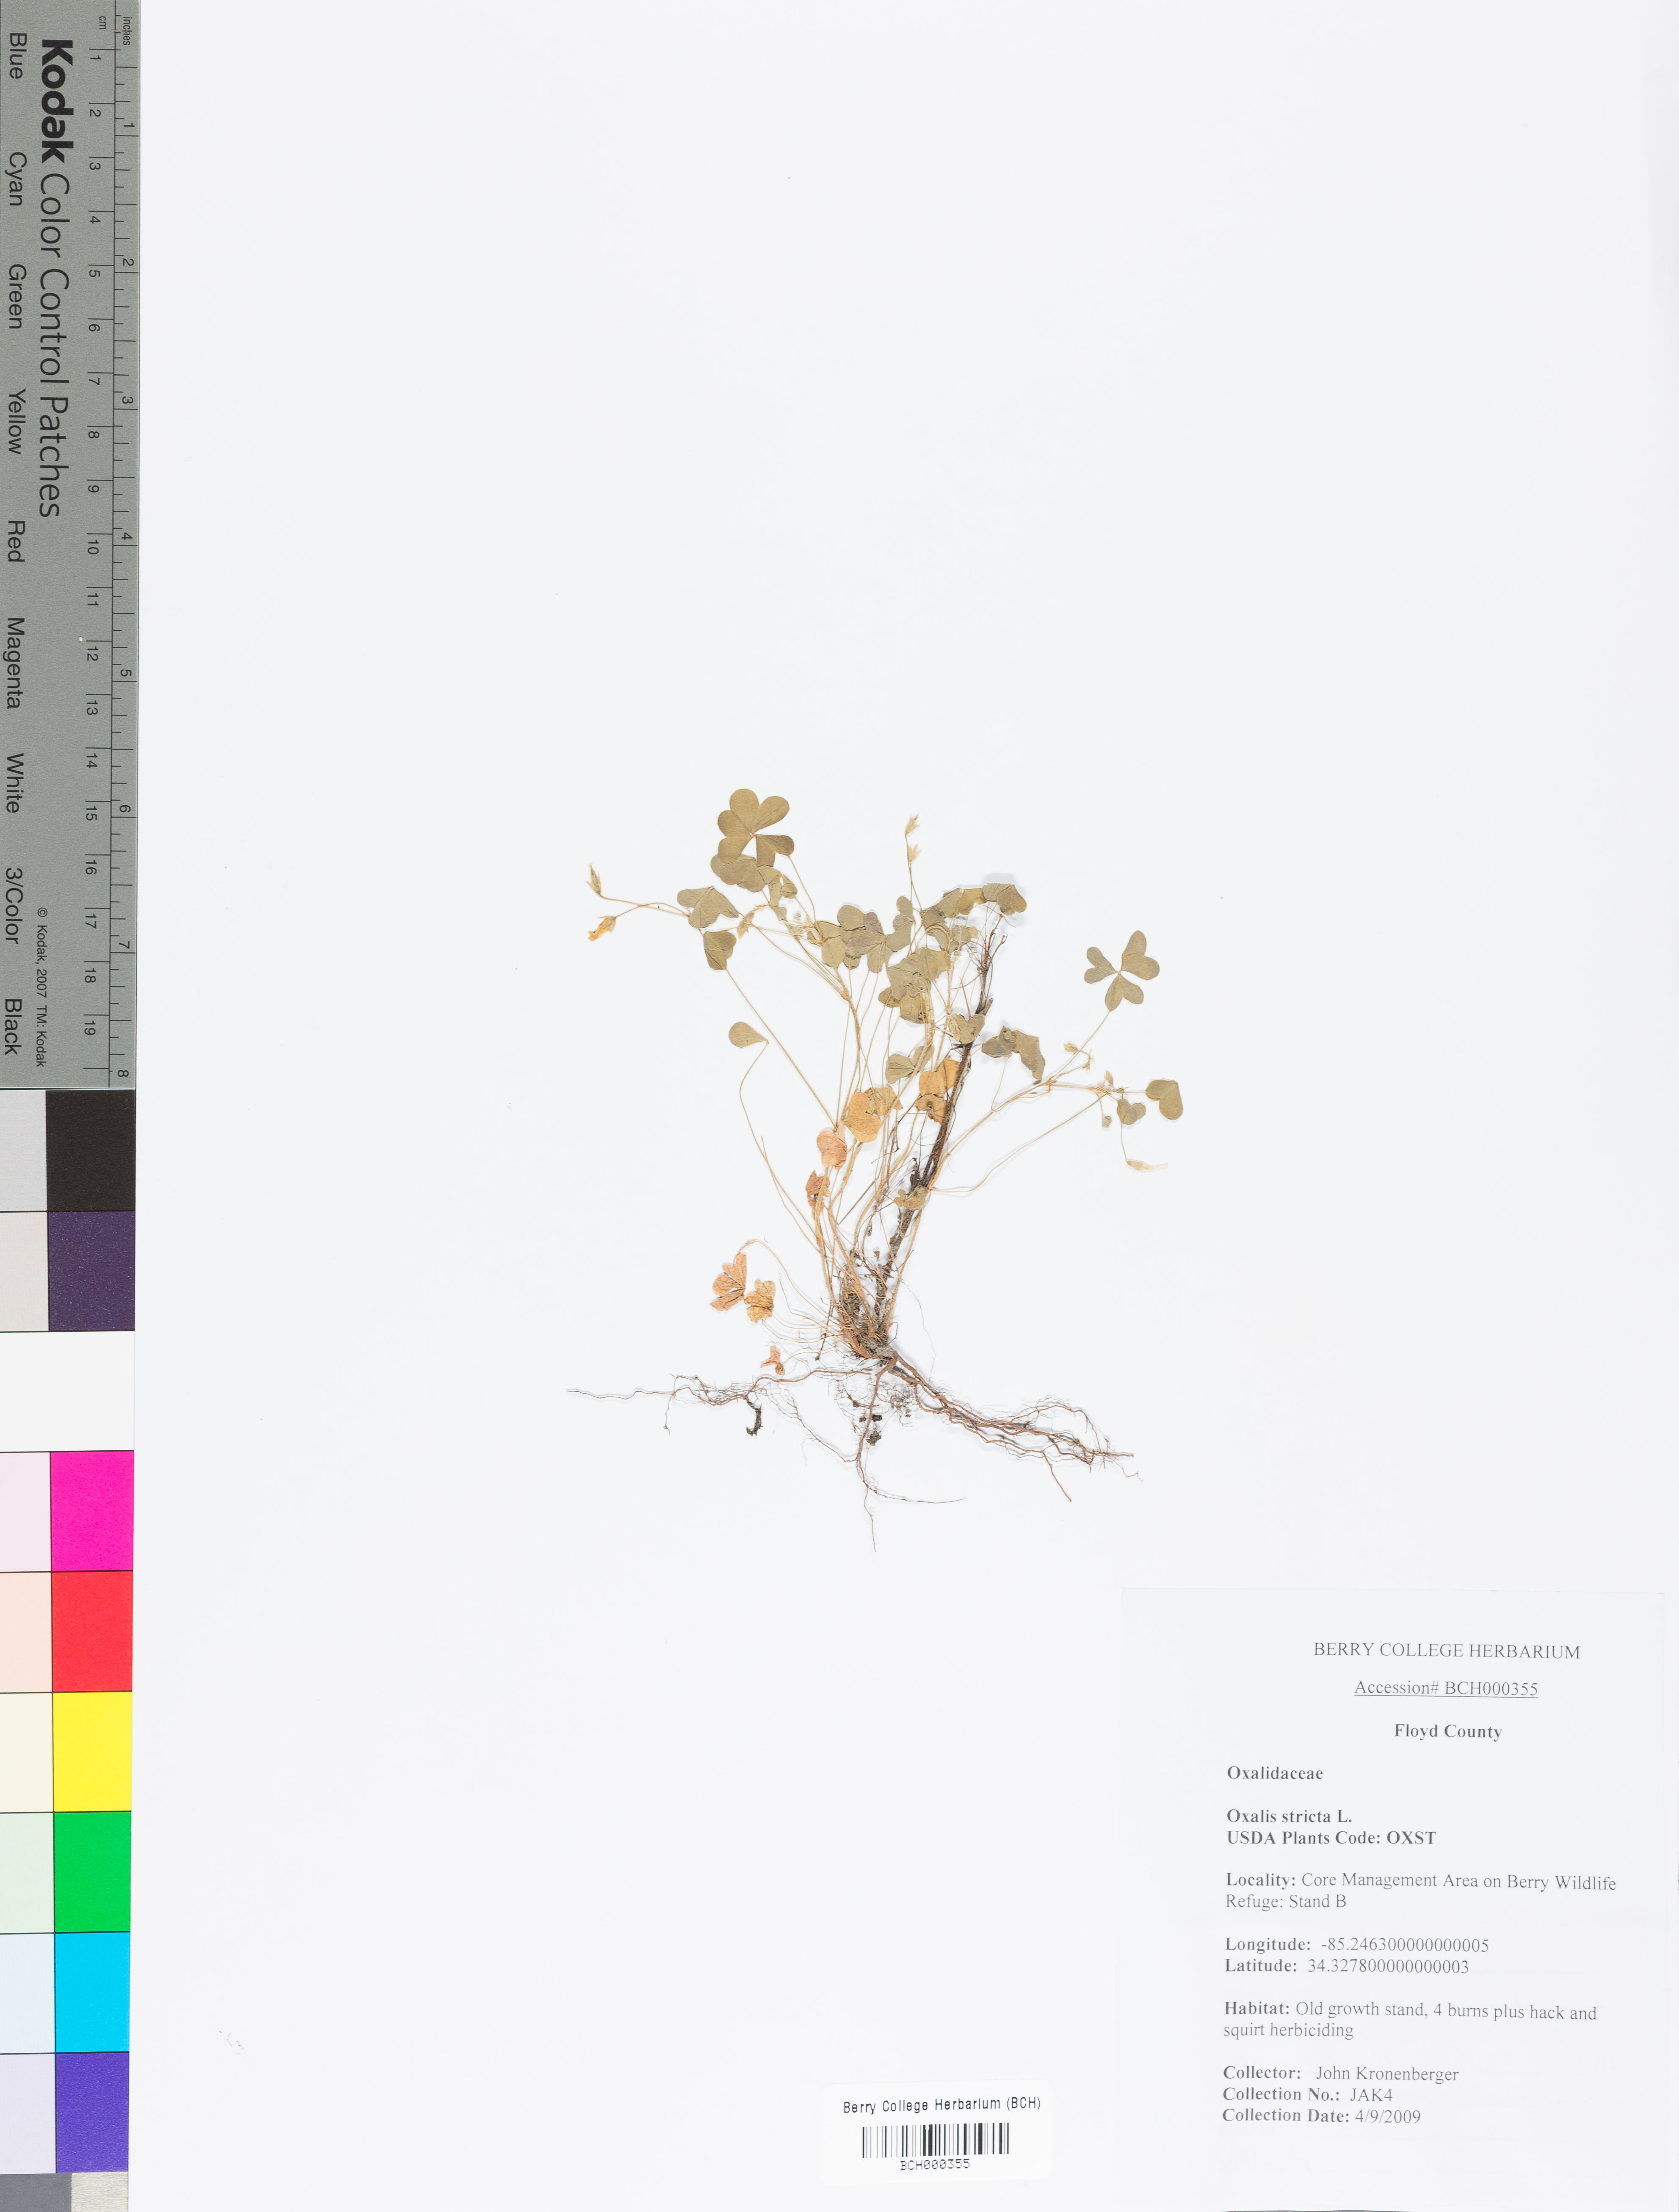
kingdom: Plantae
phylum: Tracheophyta
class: Magnoliopsida
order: Oxalidales
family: Oxalidaceae
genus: Oxalis
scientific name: Oxalis stricta
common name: Upright yellow-sorrel
